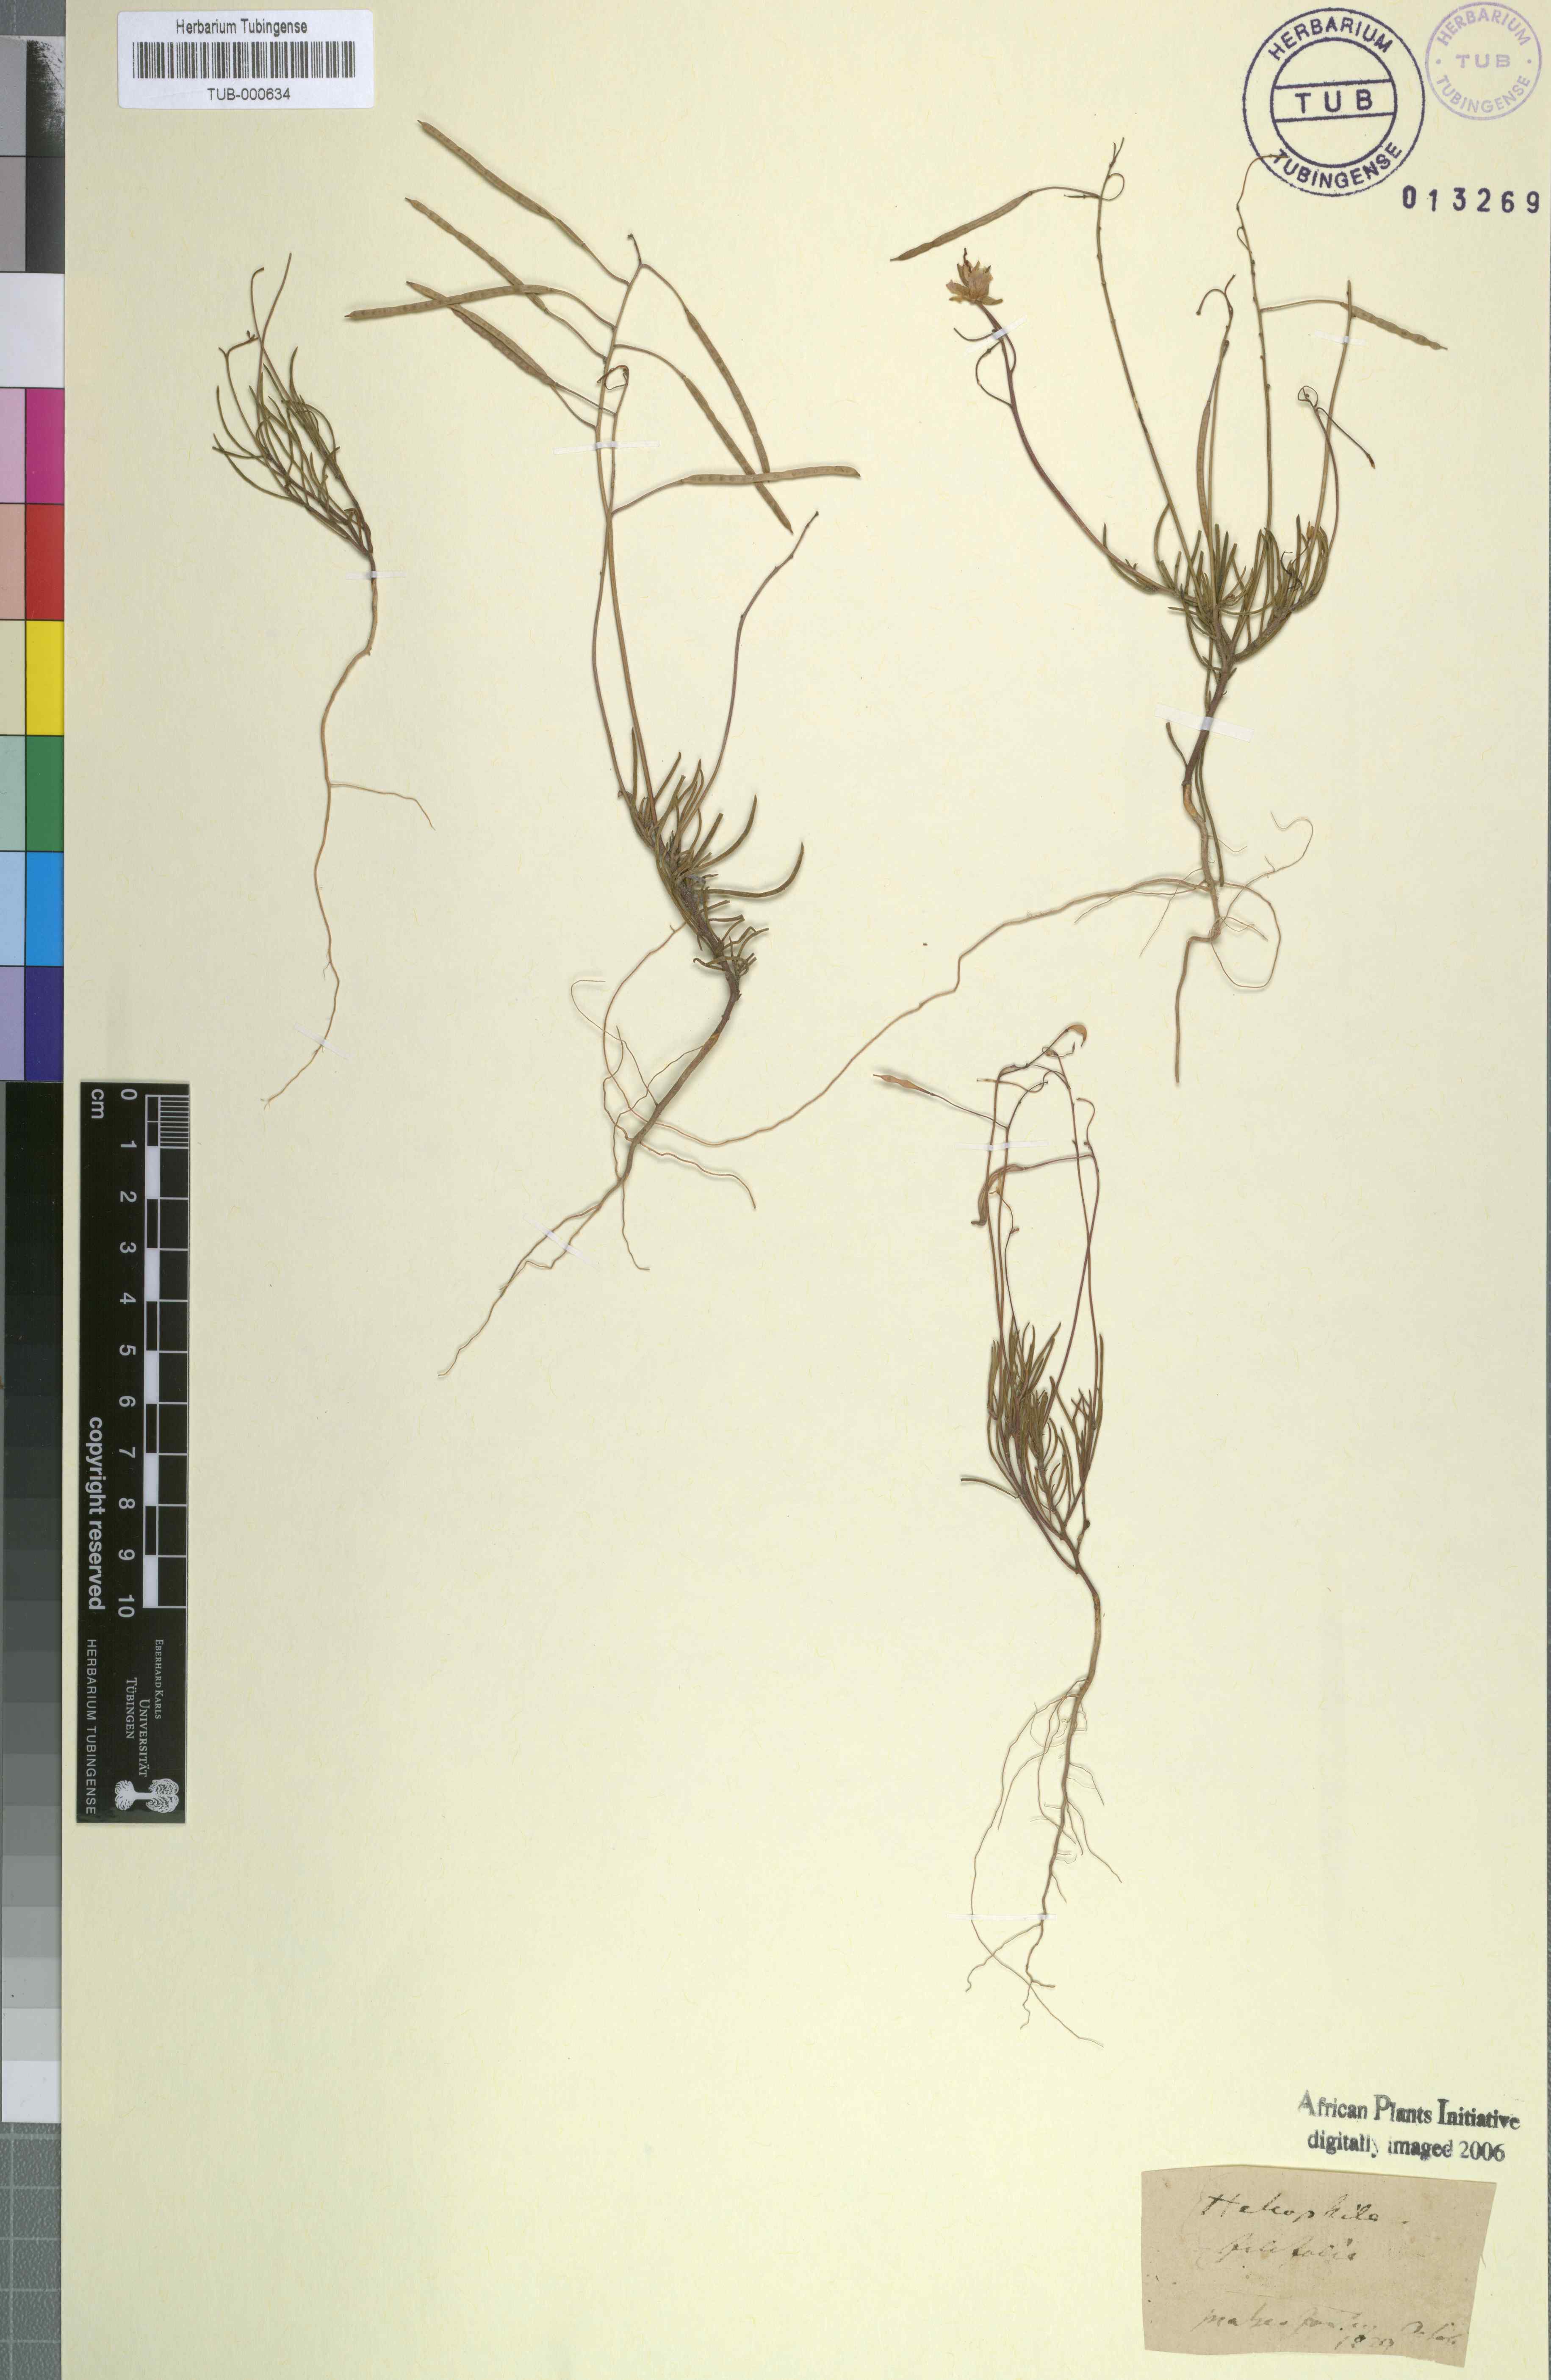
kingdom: Plantae
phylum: Tracheophyta
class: Magnoliopsida
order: Brassicales
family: Brassicaceae
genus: Heliophila
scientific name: Heliophila coronopifolia
